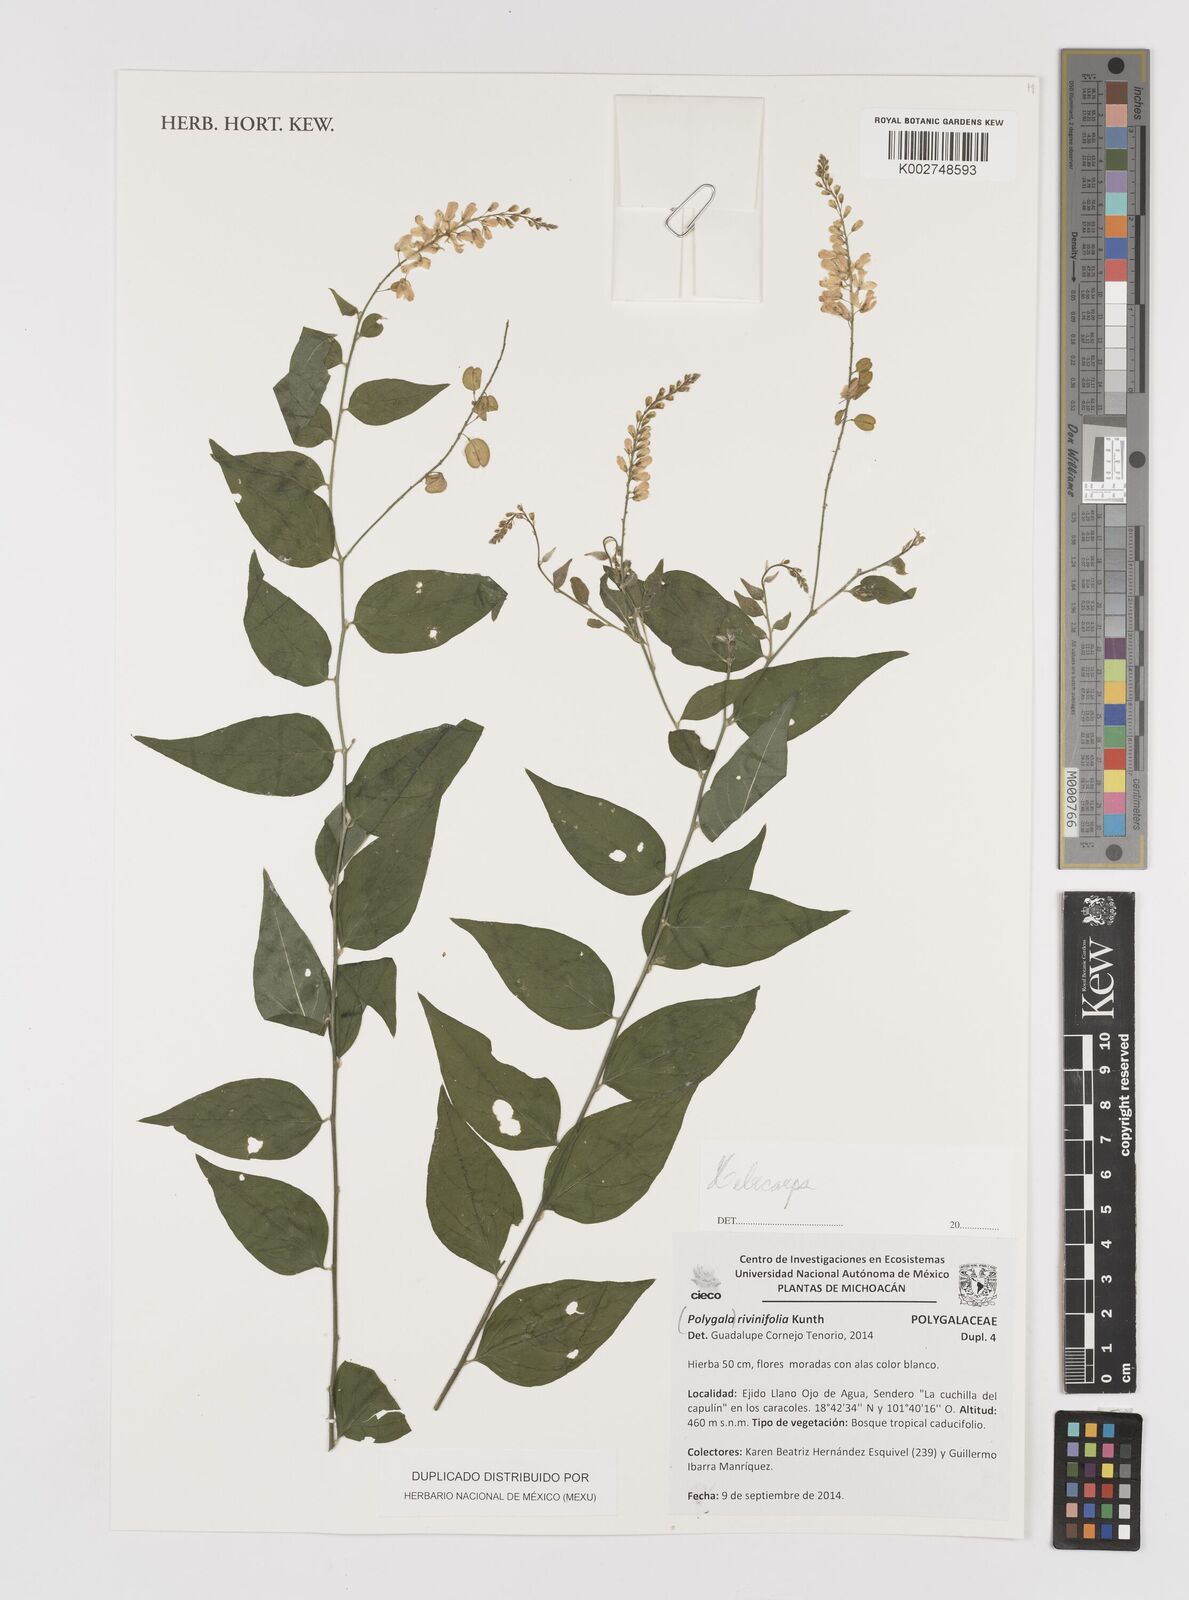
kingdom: Plantae
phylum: Tracheophyta
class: Magnoliopsida
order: Fabales
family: Polygalaceae
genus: Hebecarpa
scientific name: Hebecarpa rivinifolia
